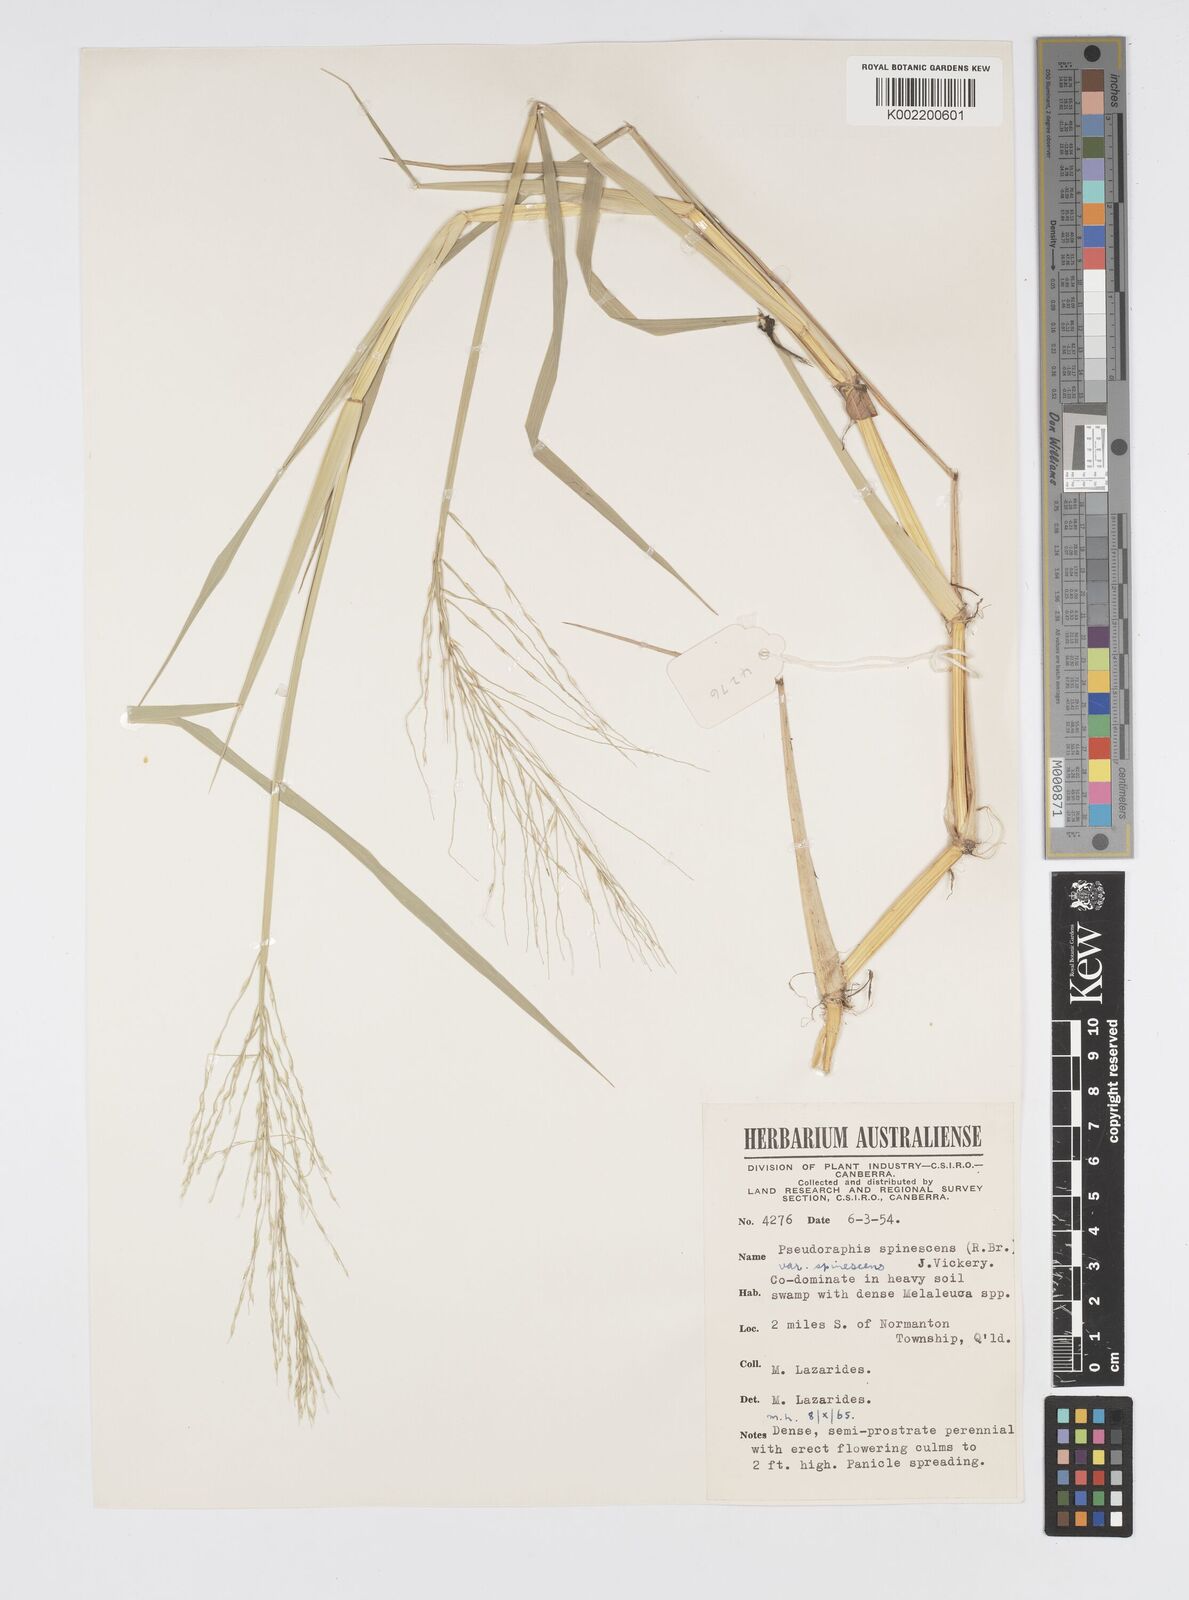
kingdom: Plantae
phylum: Tracheophyta
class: Liliopsida
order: Poales
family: Poaceae
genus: Pseudoraphis
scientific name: Pseudoraphis spinescens
